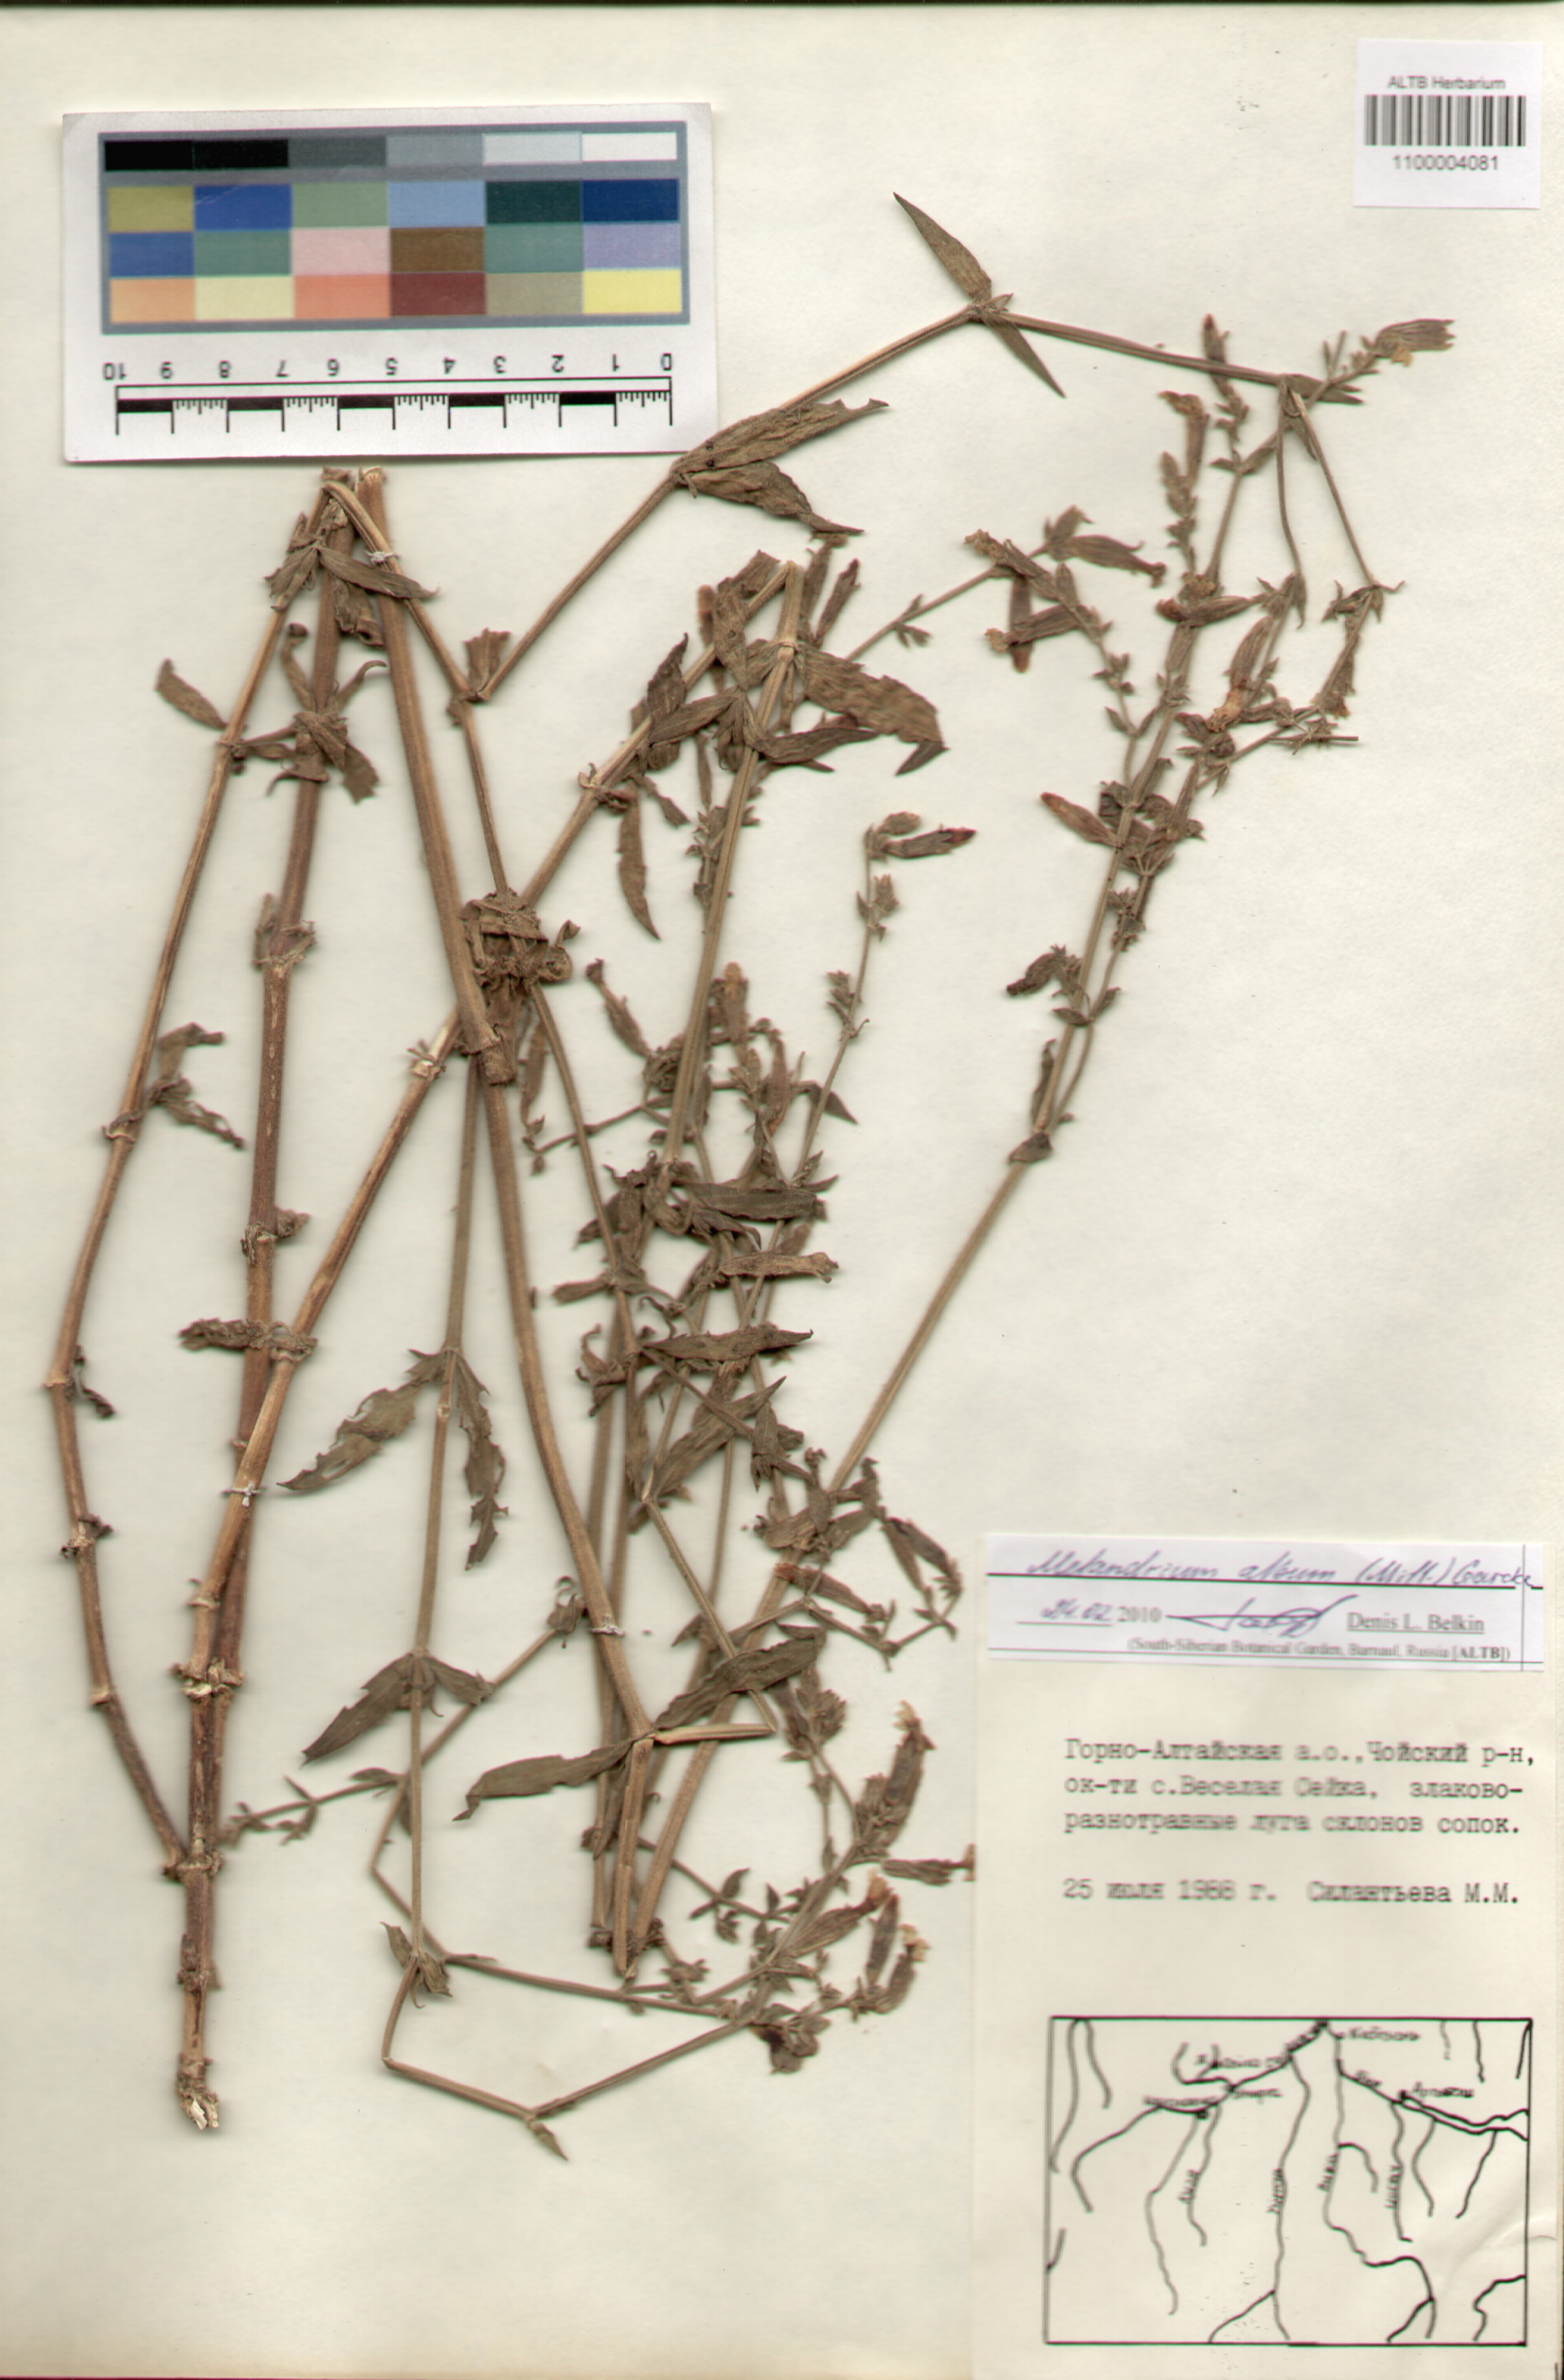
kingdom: Plantae
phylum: Tracheophyta
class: Magnoliopsida
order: Caryophyllales
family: Caryophyllaceae
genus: Silene
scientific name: Silene latifolia
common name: White campion
